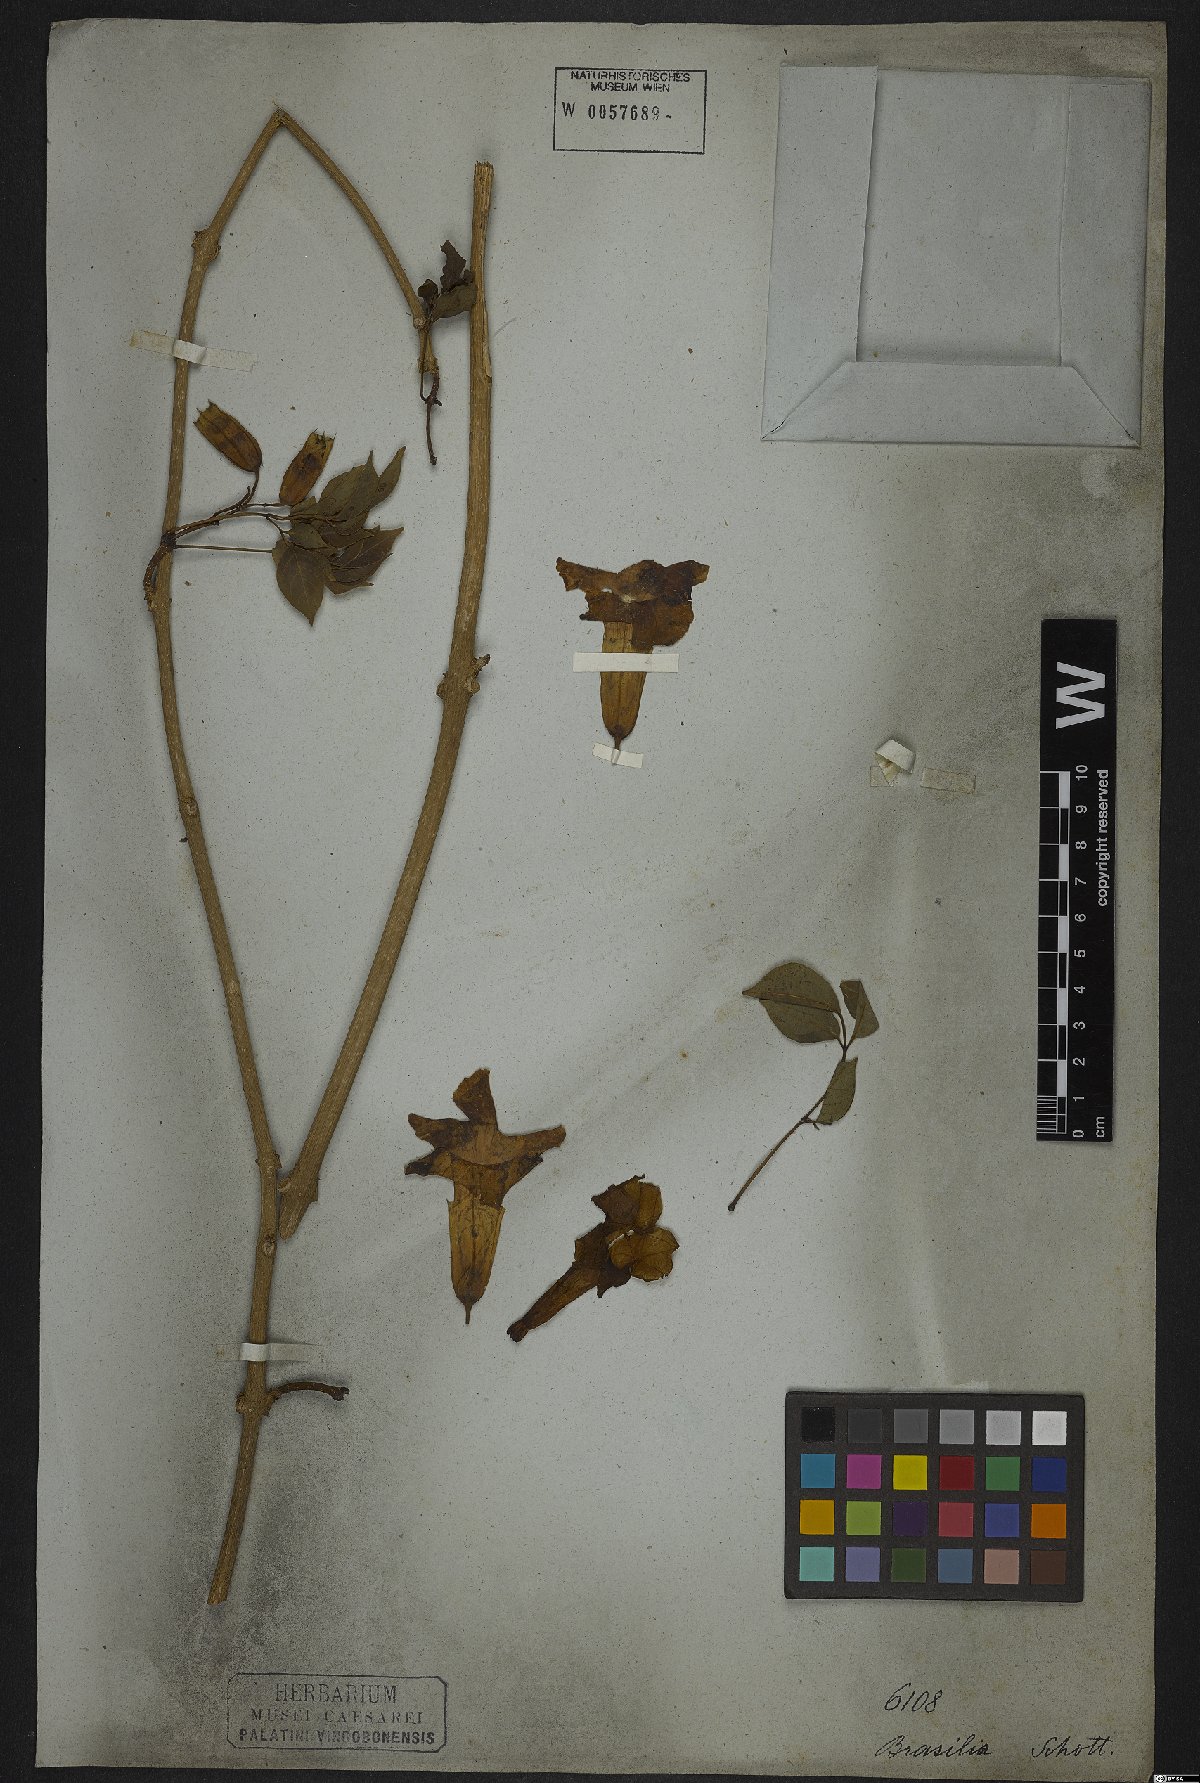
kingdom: Plantae
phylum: Tracheophyta
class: Magnoliopsida
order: Lamiales
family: Bignoniaceae
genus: Perianthomega
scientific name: Perianthomega vellozoi
